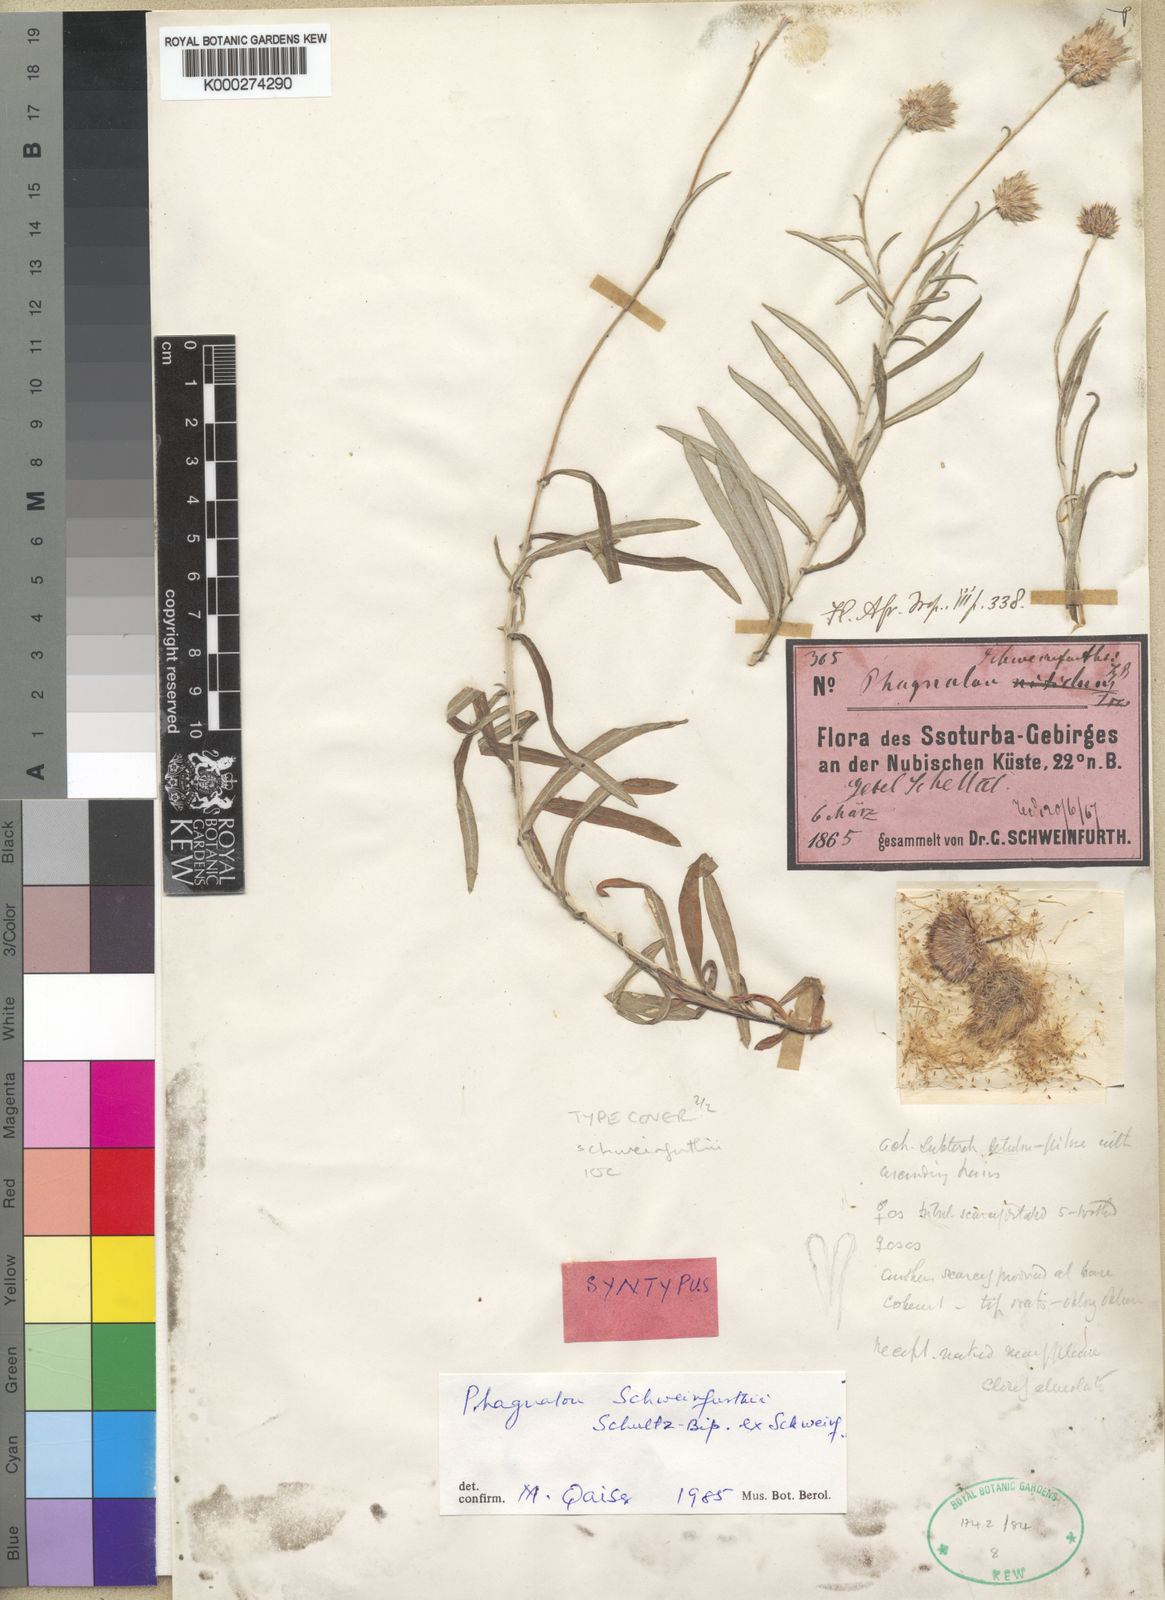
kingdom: Plantae
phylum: Tracheophyta
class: Magnoliopsida
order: Asterales
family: Asteraceae
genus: Phagnalon
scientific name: Phagnalon schweinfurthii
